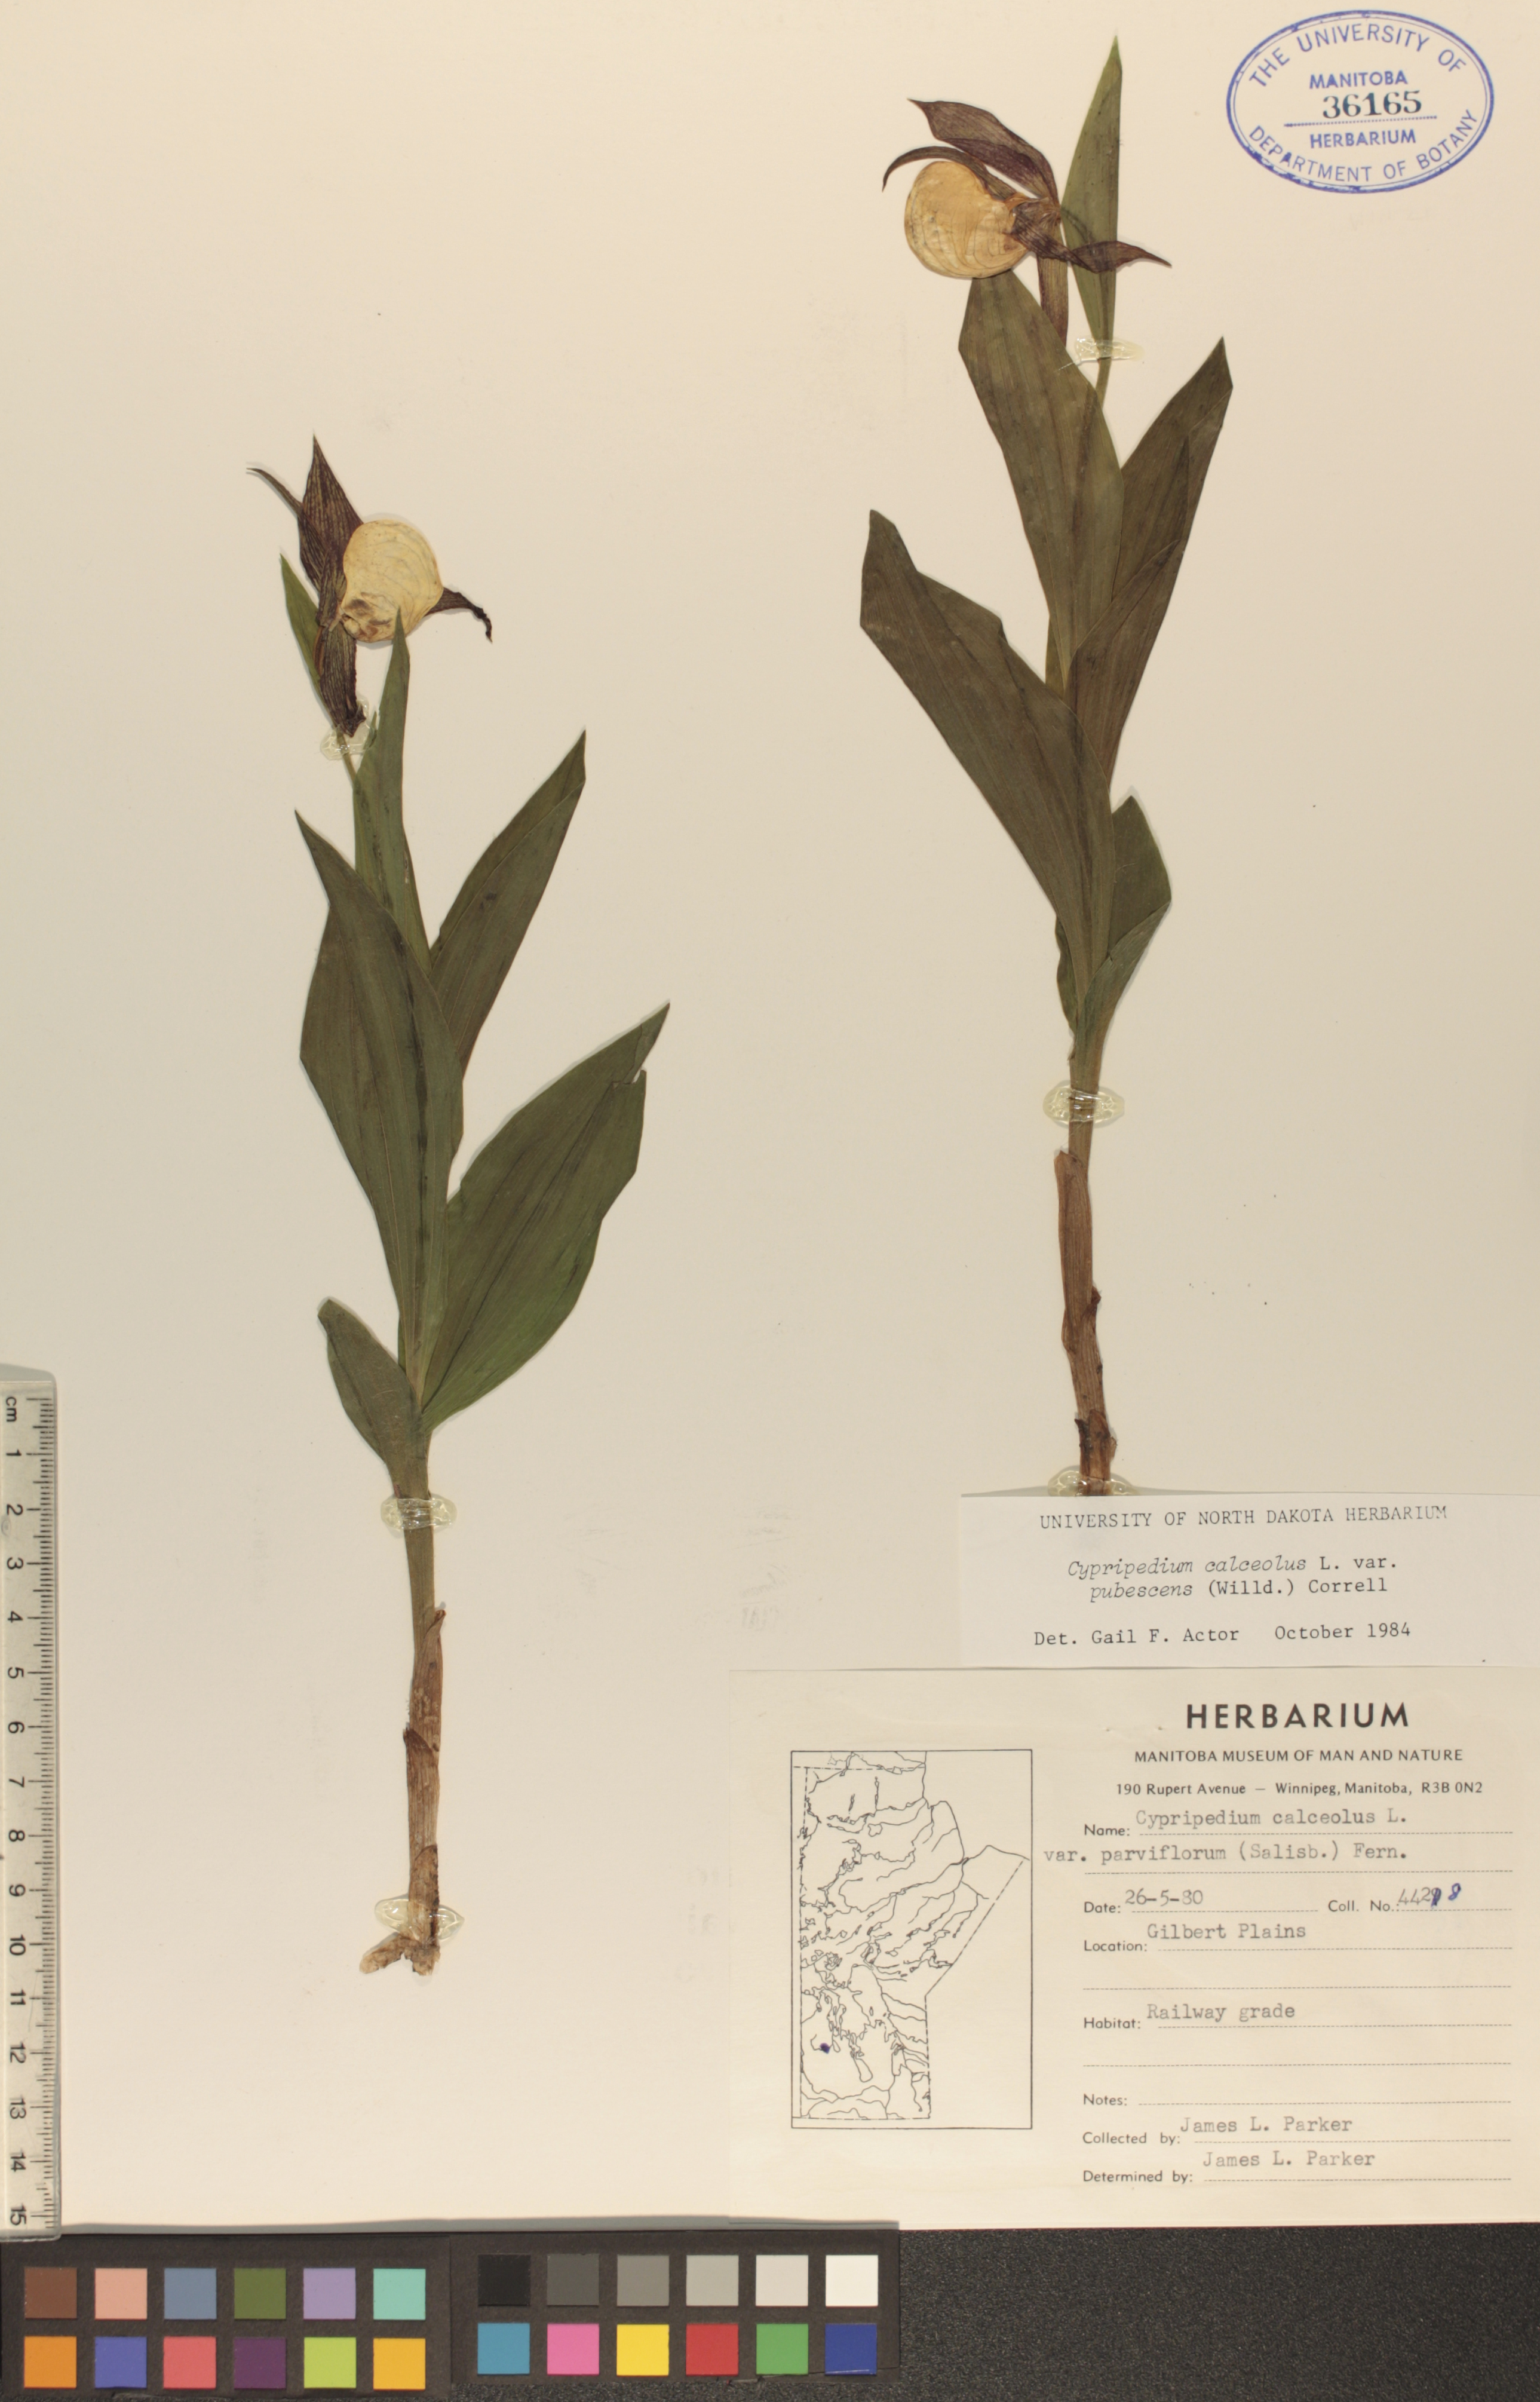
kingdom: Plantae
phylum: Tracheophyta
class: Liliopsida
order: Asparagales
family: Orchidaceae
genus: Cypripedium
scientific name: Cypripedium parviflorum
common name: American yellow lady's-slipper
